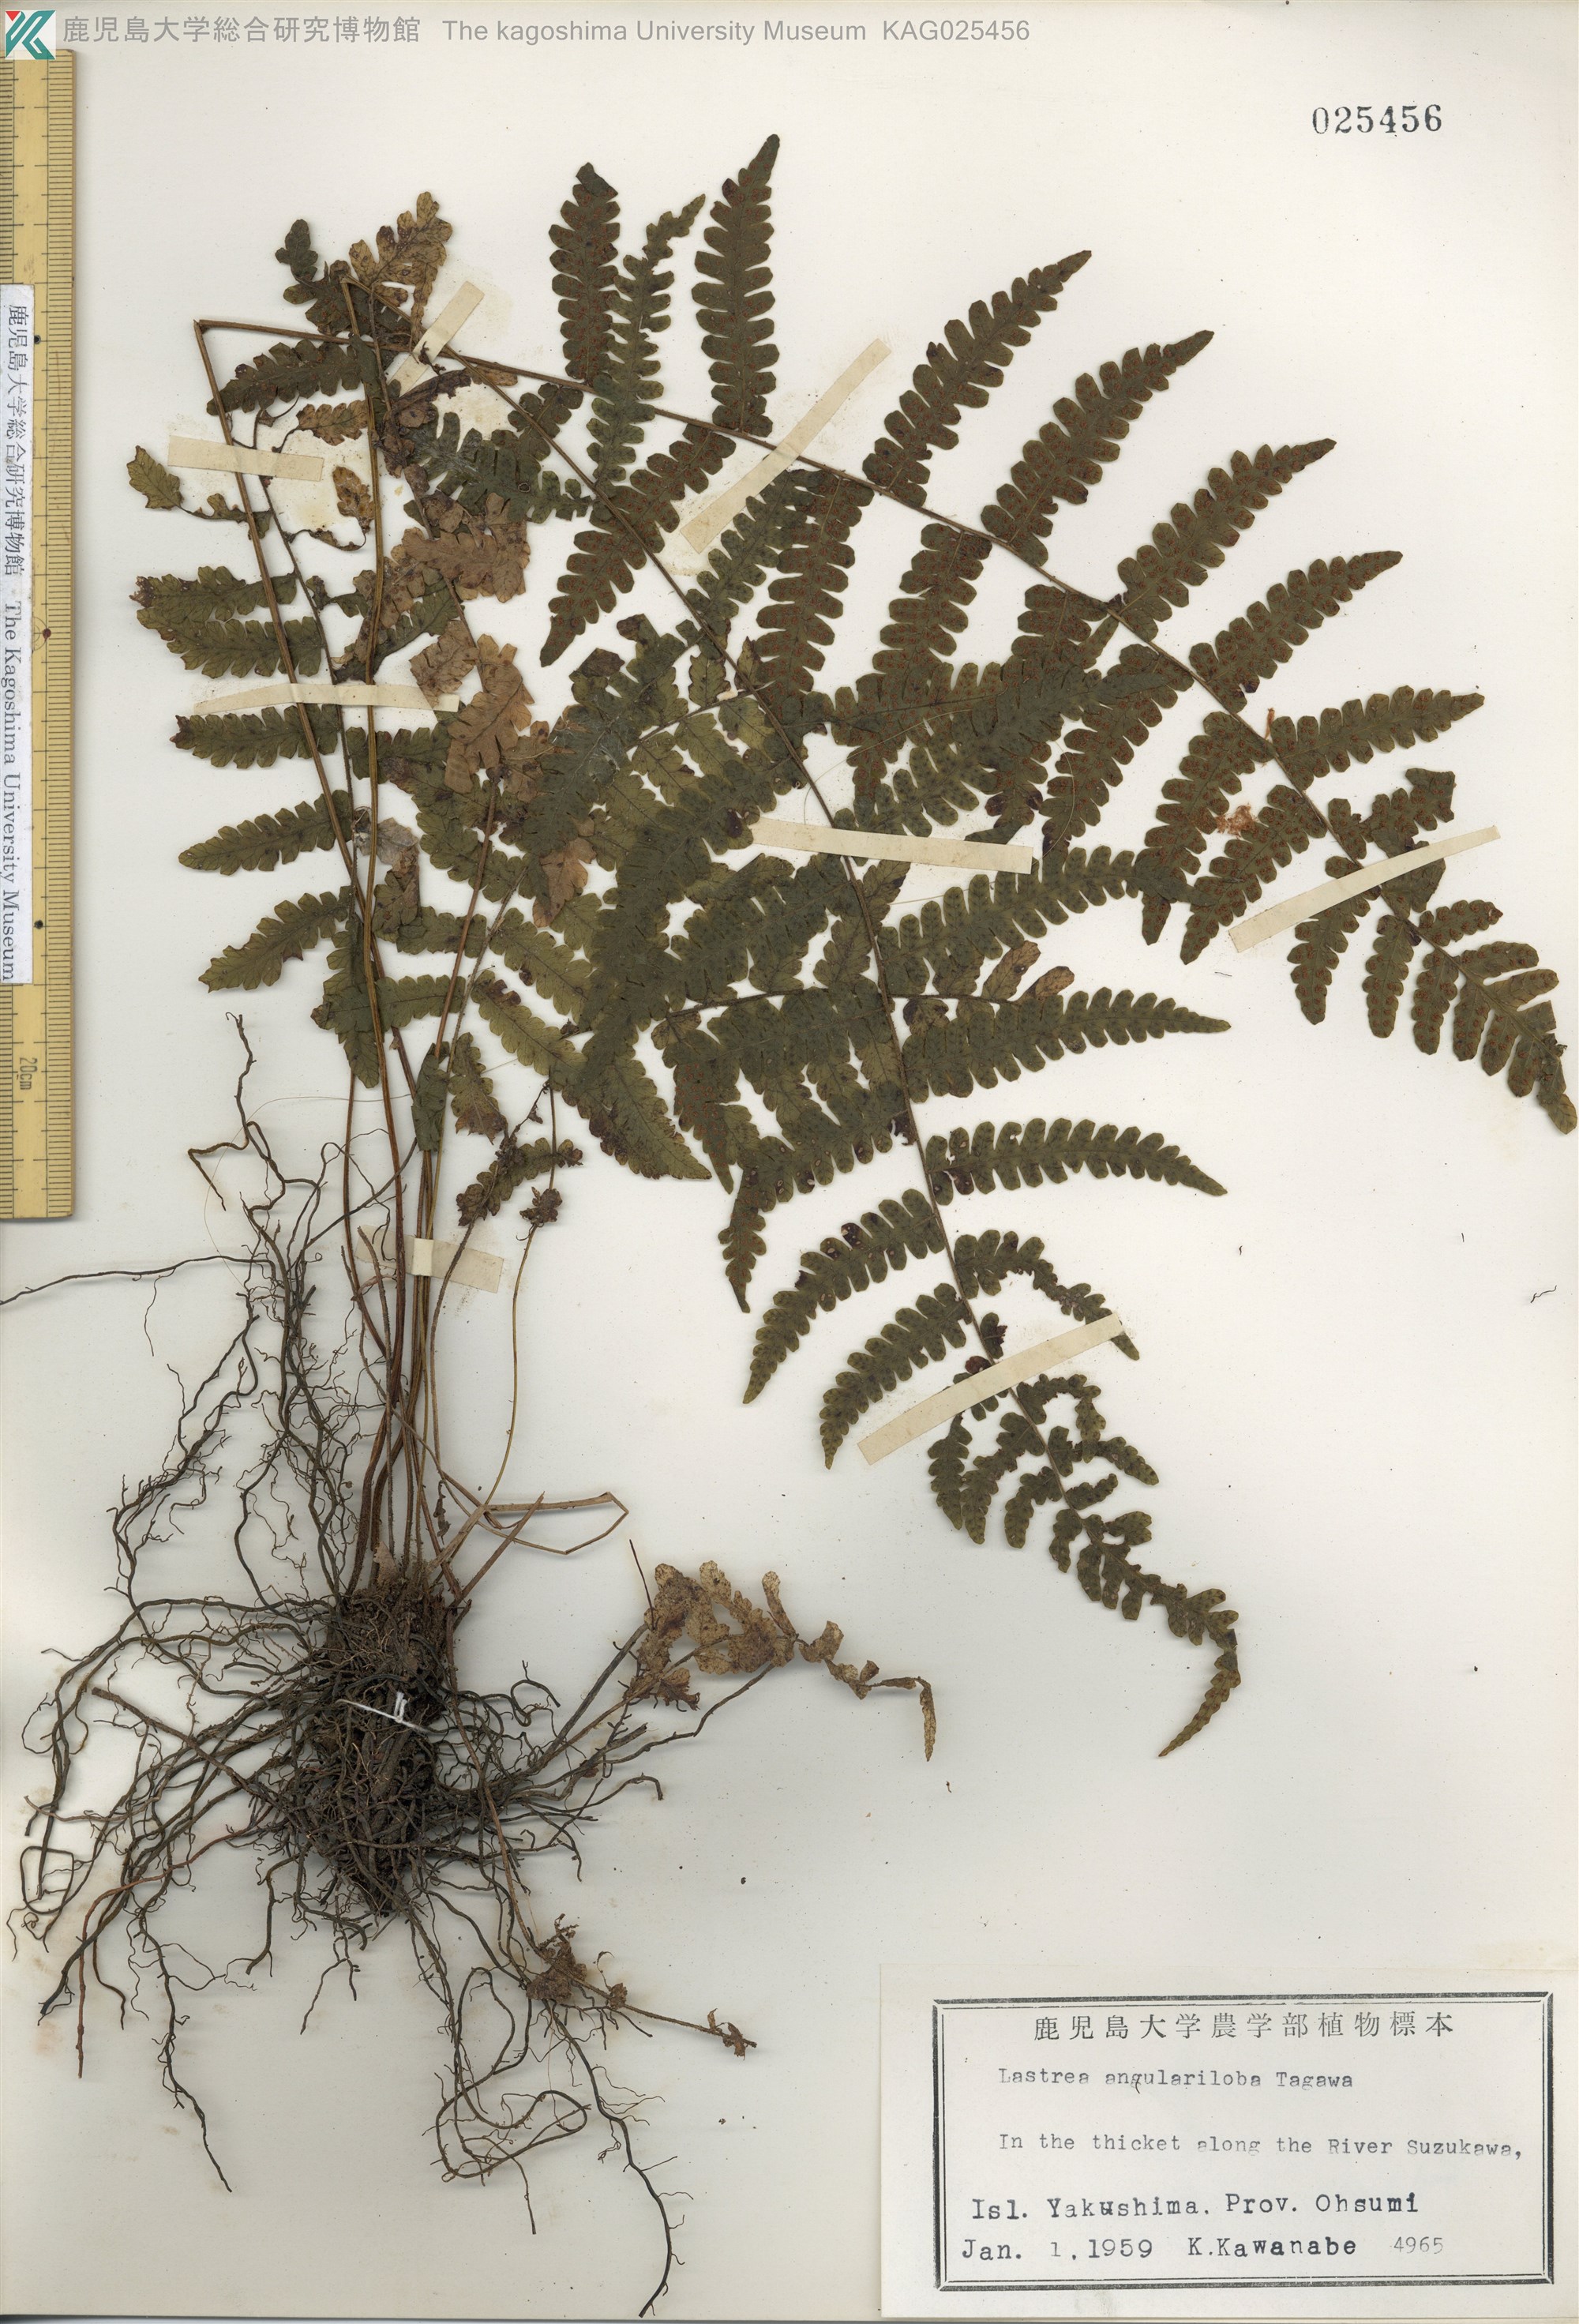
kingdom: Plantae
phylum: Tracheophyta
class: Polypodiopsida
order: Polypodiales
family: Thelypteridaceae
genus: Coryphopteris
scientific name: Coryphopteris hirsutipes
